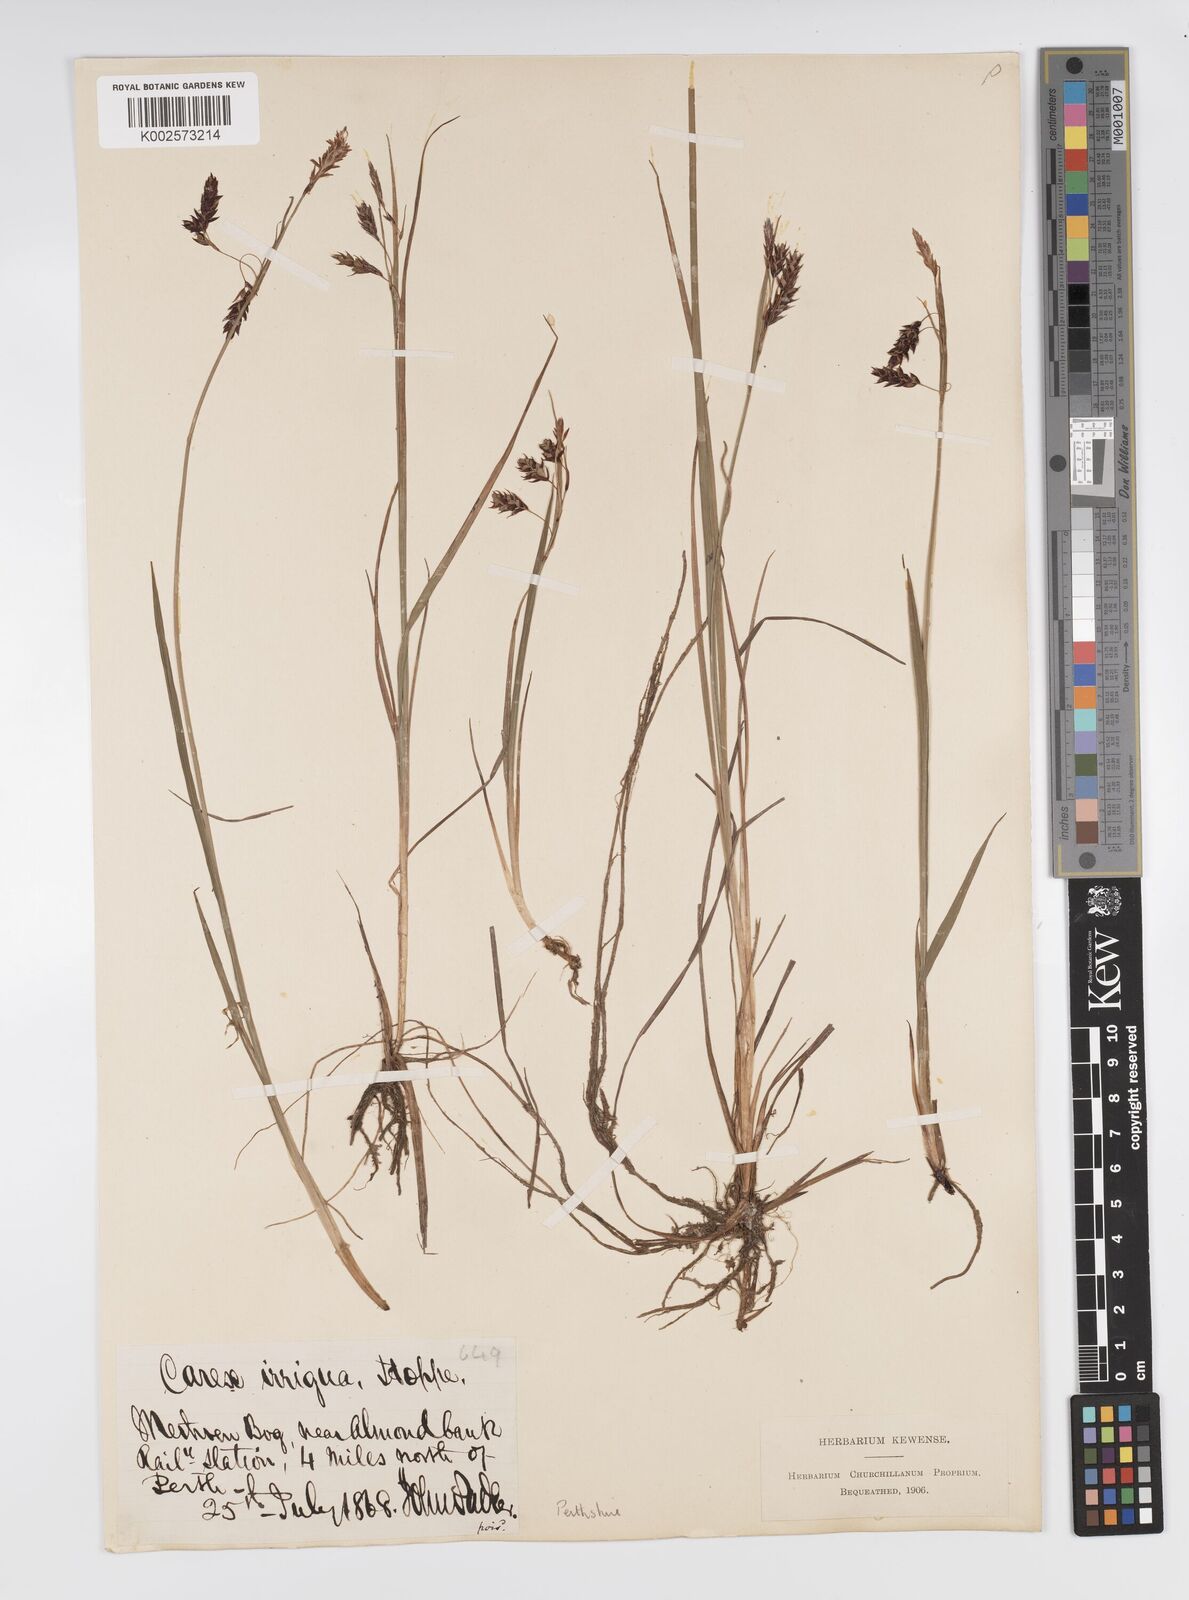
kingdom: Plantae
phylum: Tracheophyta
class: Liliopsida
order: Poales
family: Cyperaceae
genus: Carex
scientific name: Carex magellanica
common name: Bog sedge
